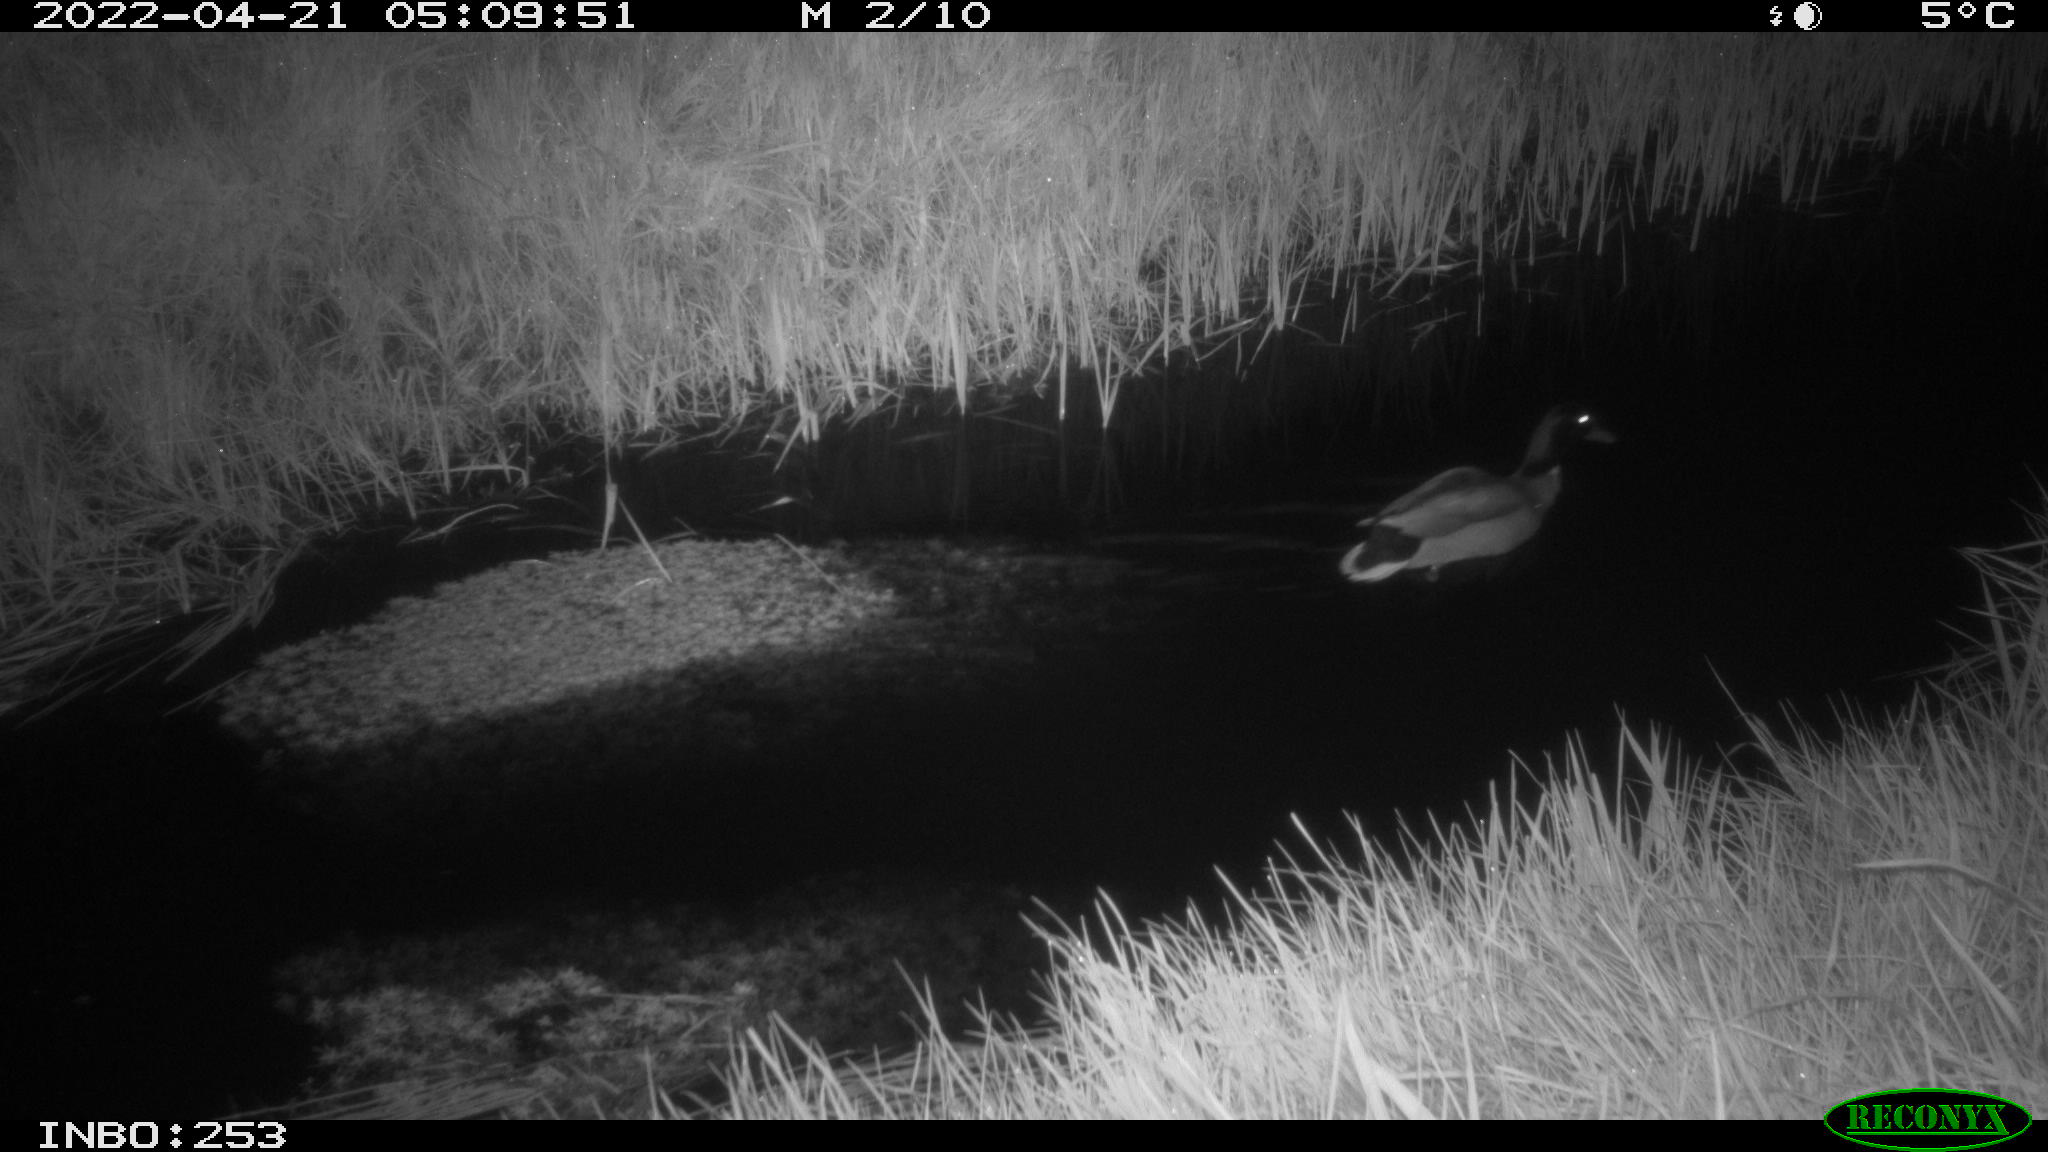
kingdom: Animalia
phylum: Chordata
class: Aves
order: Anseriformes
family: Anatidae
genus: Anas
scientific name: Anas platyrhynchos
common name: Mallard
